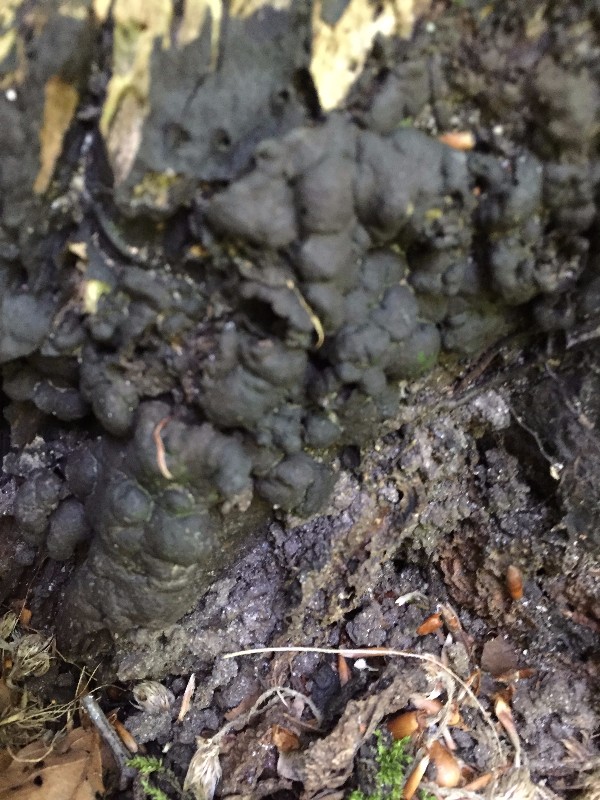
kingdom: Fungi
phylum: Ascomycota
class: Sordariomycetes
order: Xylariales
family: Xylariaceae
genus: Kretzschmaria
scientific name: Kretzschmaria deusta
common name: stor kulsvamp
